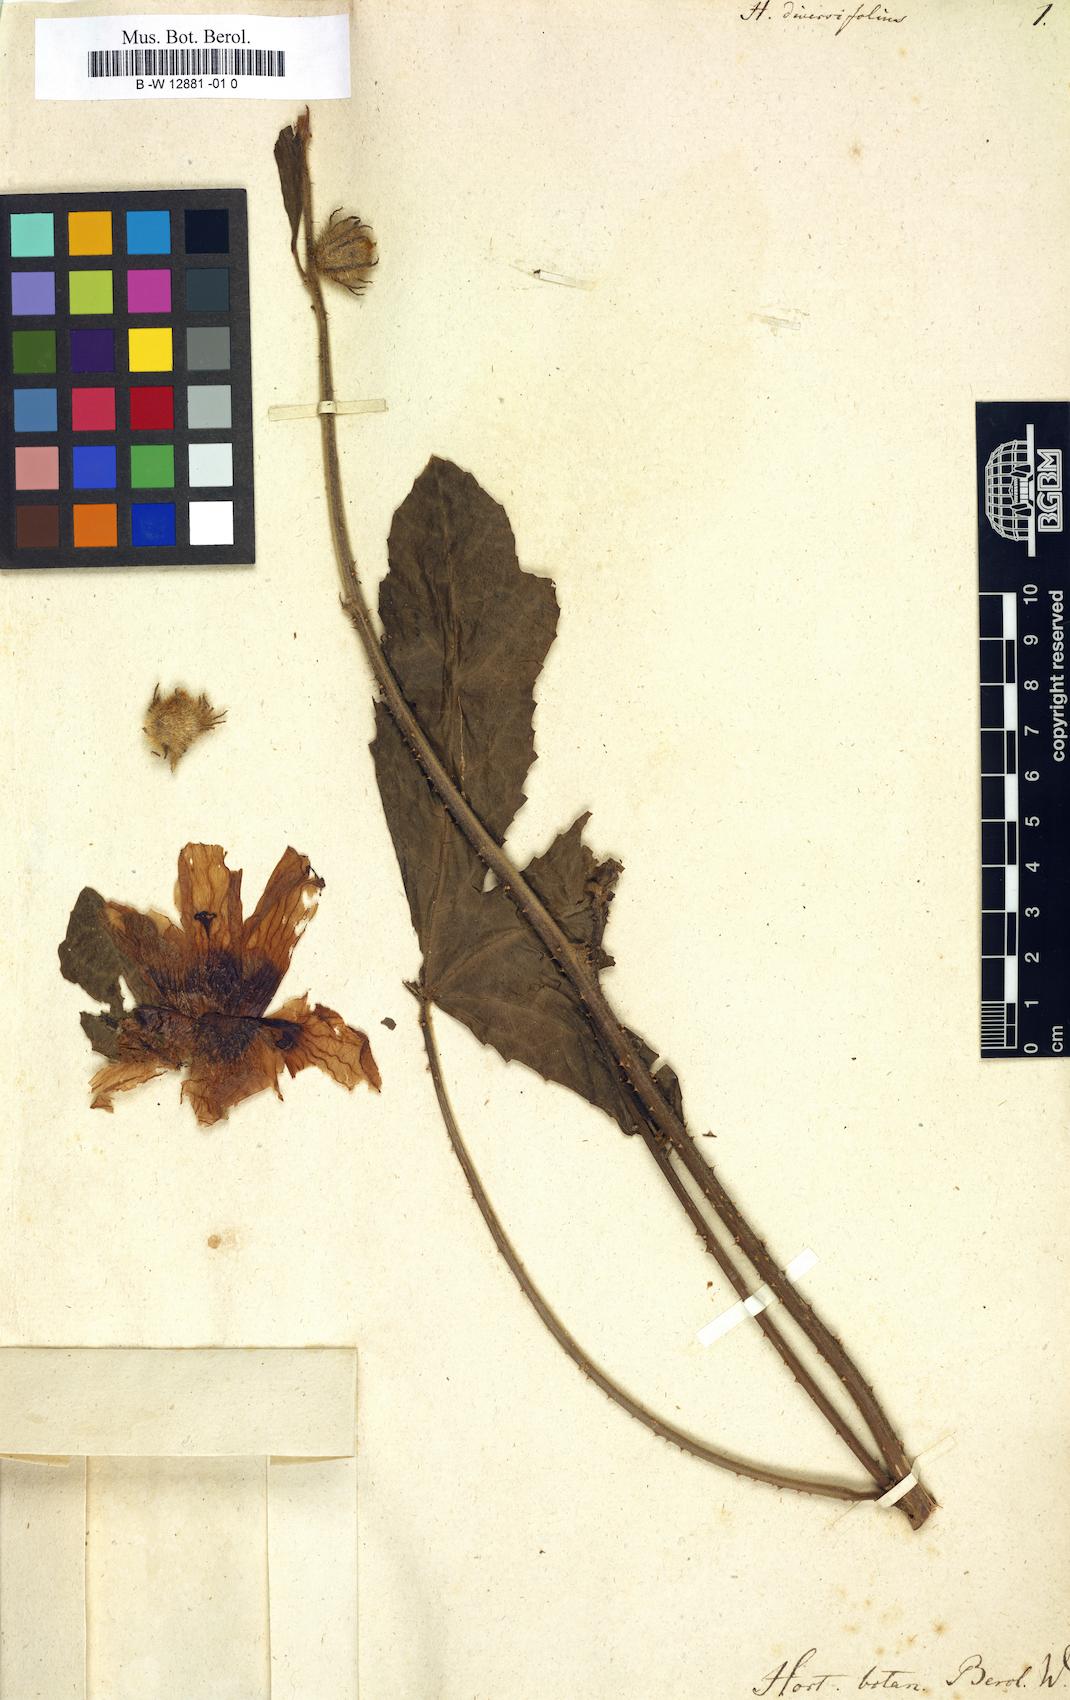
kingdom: Plantae
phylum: Tracheophyta
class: Magnoliopsida
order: Malvales
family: Malvaceae
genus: Hibiscus
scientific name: Hibiscus diversifolius
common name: Cape hibiscus
